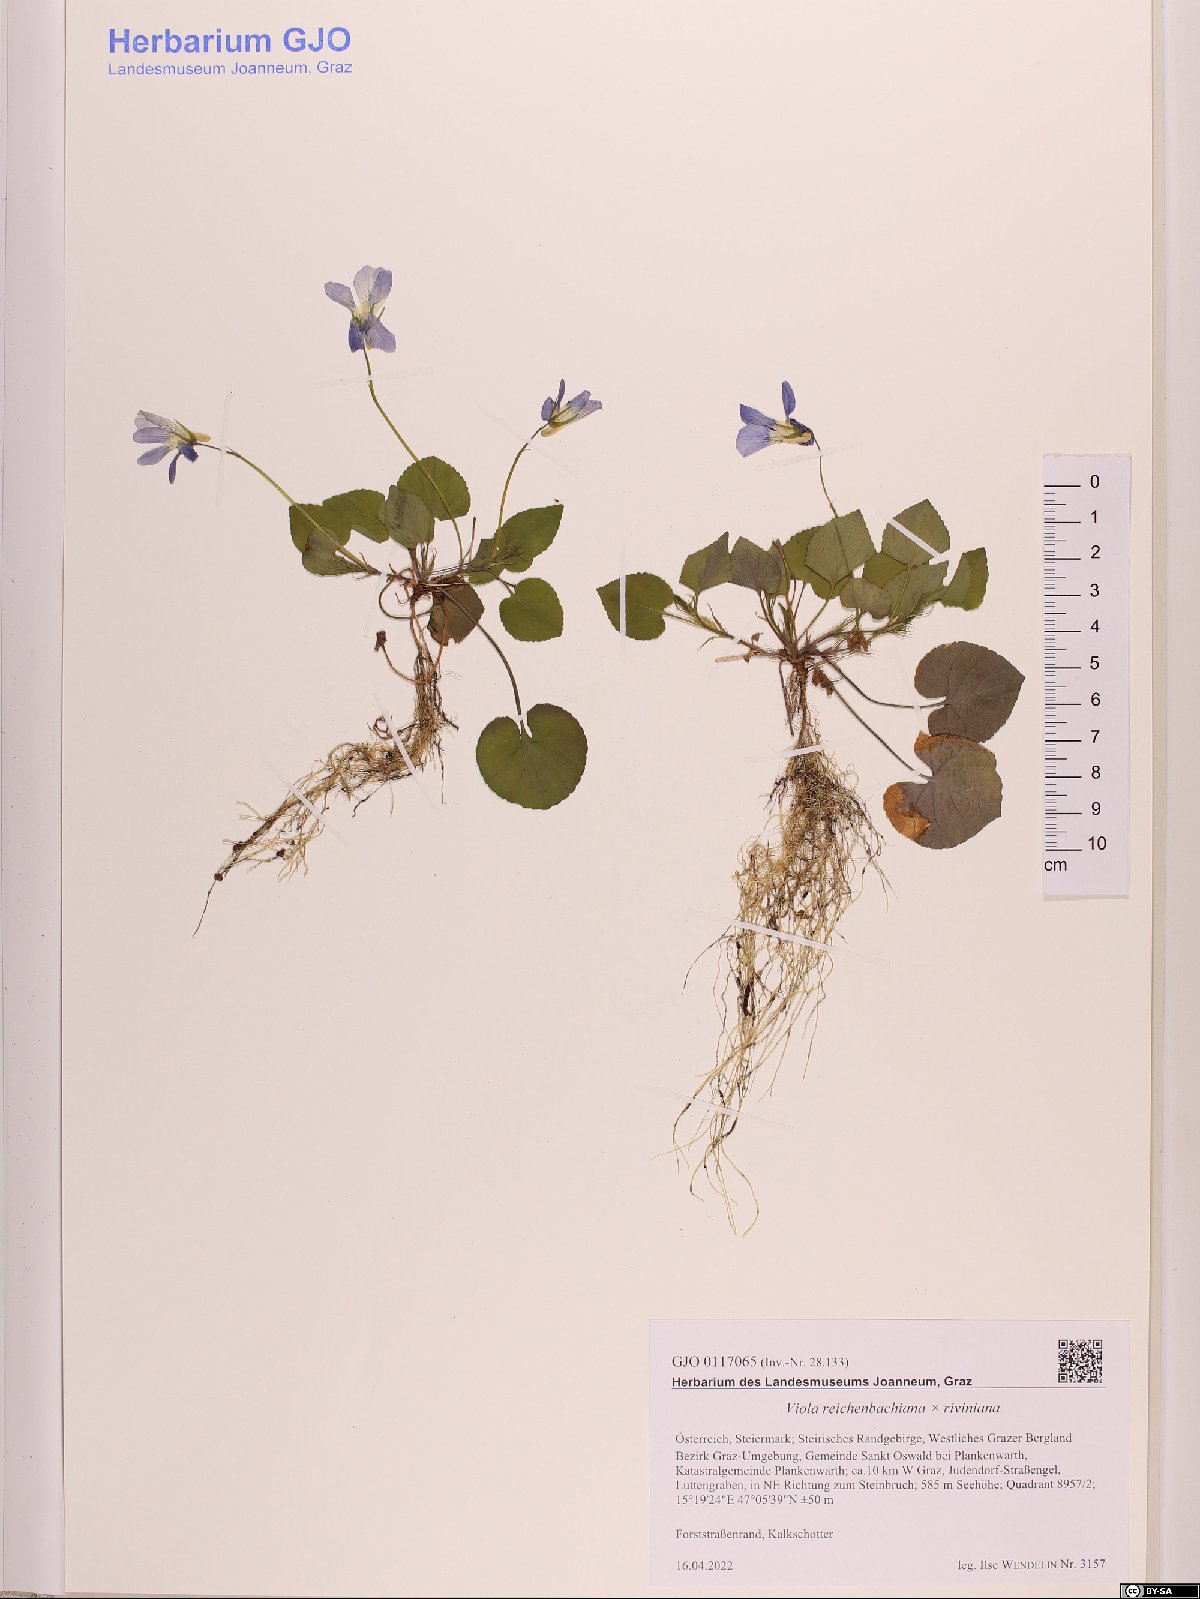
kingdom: Plantae
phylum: Tracheophyta
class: Magnoliopsida
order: Malpighiales
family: Violaceae
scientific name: Violaceae
